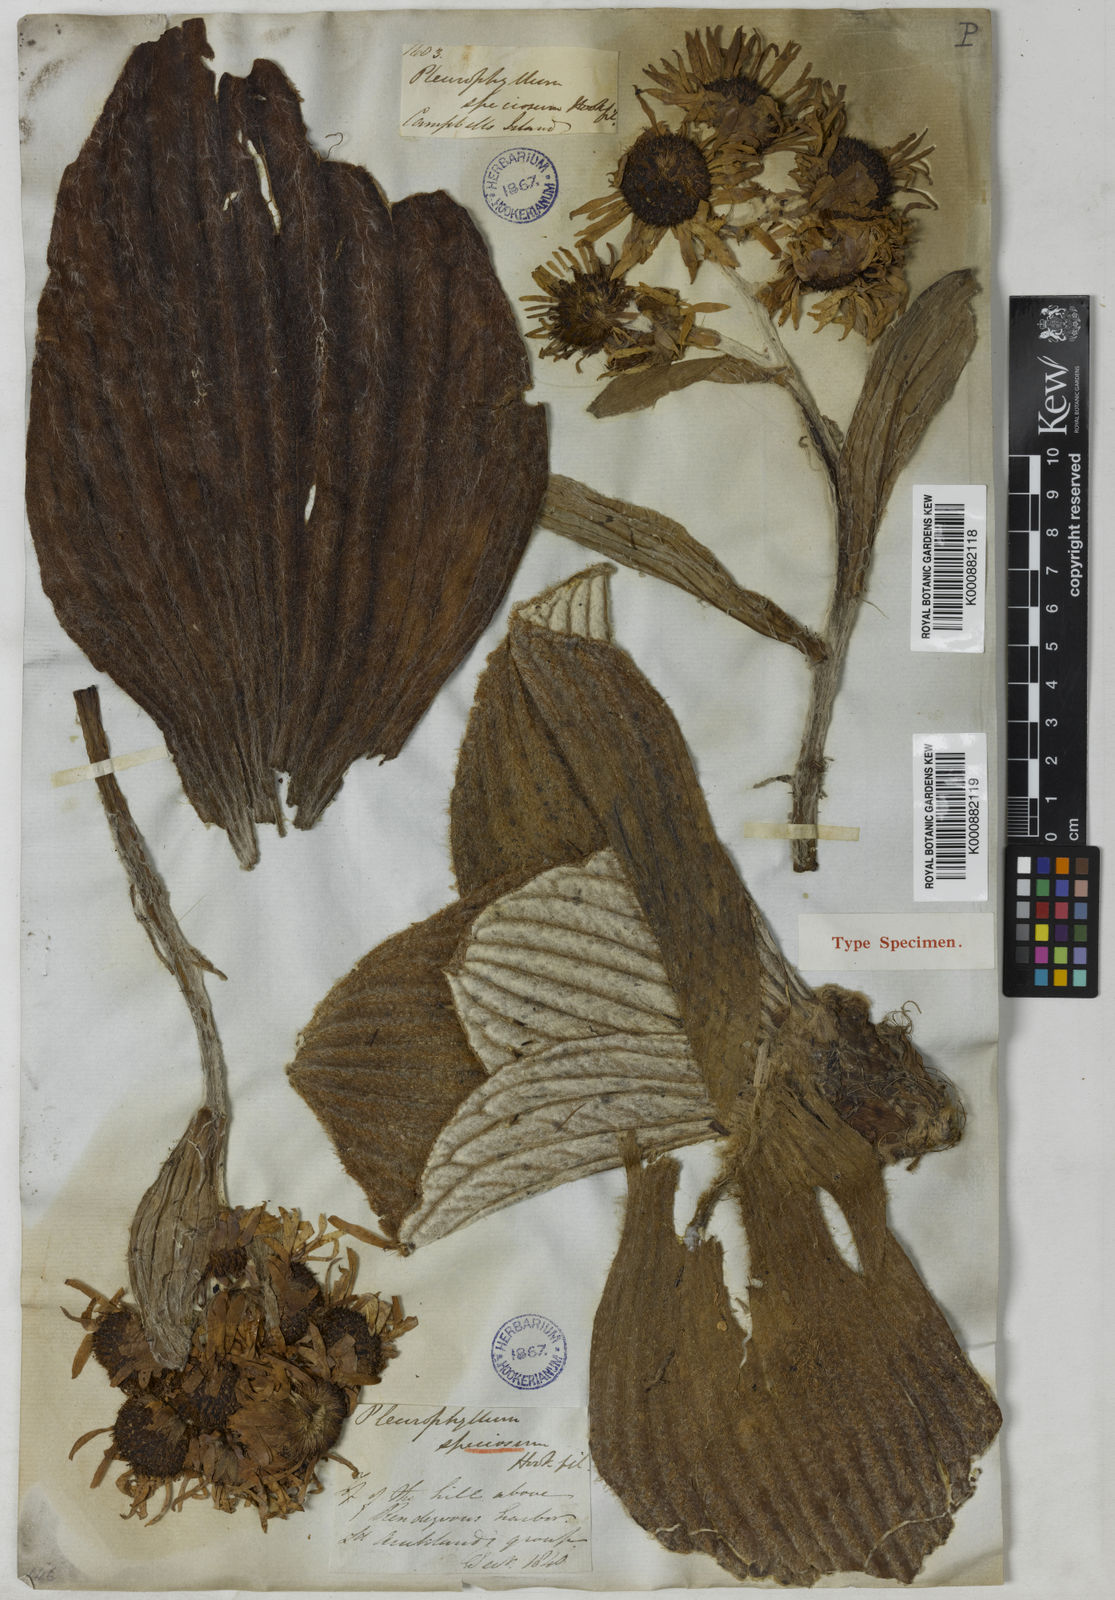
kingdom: Plantae
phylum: Tracheophyta
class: Magnoliopsida
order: Asterales
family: Asteraceae
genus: Pleurophyllum
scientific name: Pleurophyllum speciosum
